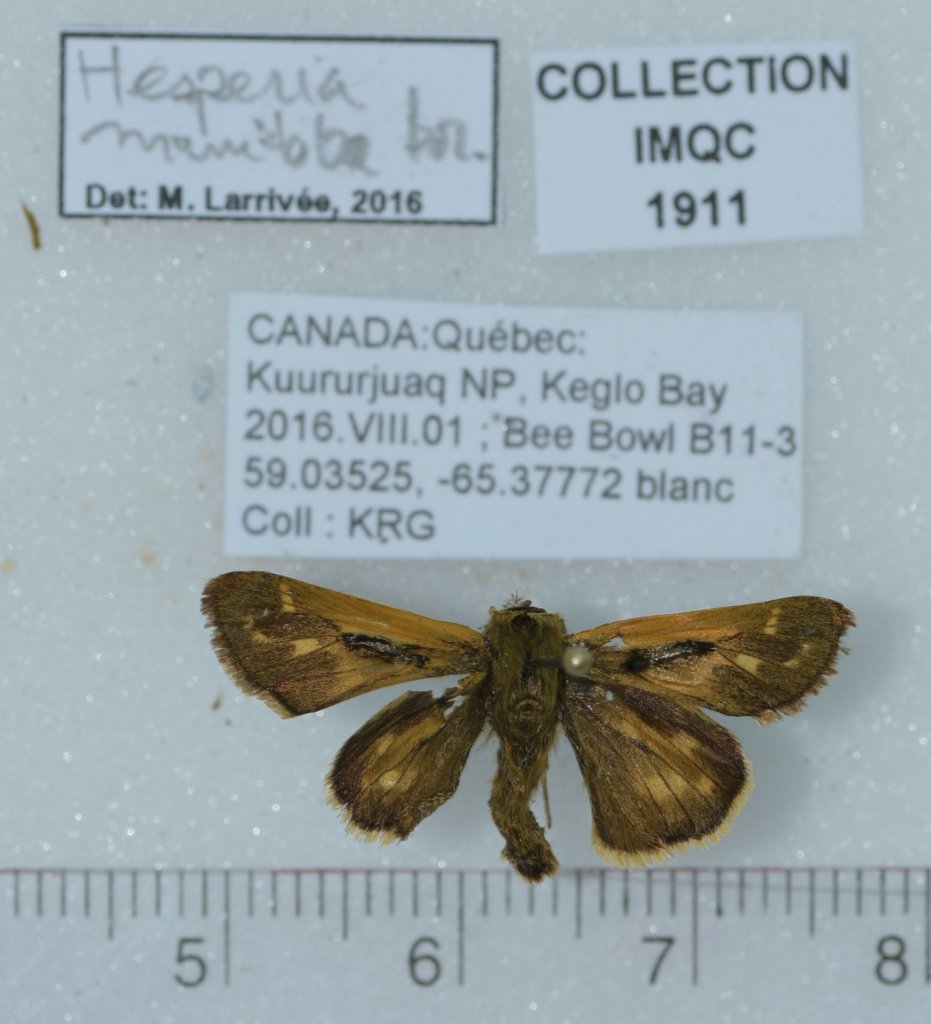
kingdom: Animalia
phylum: Arthropoda
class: Insecta
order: Lepidoptera
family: Hesperiidae
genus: Hesperia
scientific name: Hesperia comma
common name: Common Branded Skipper
